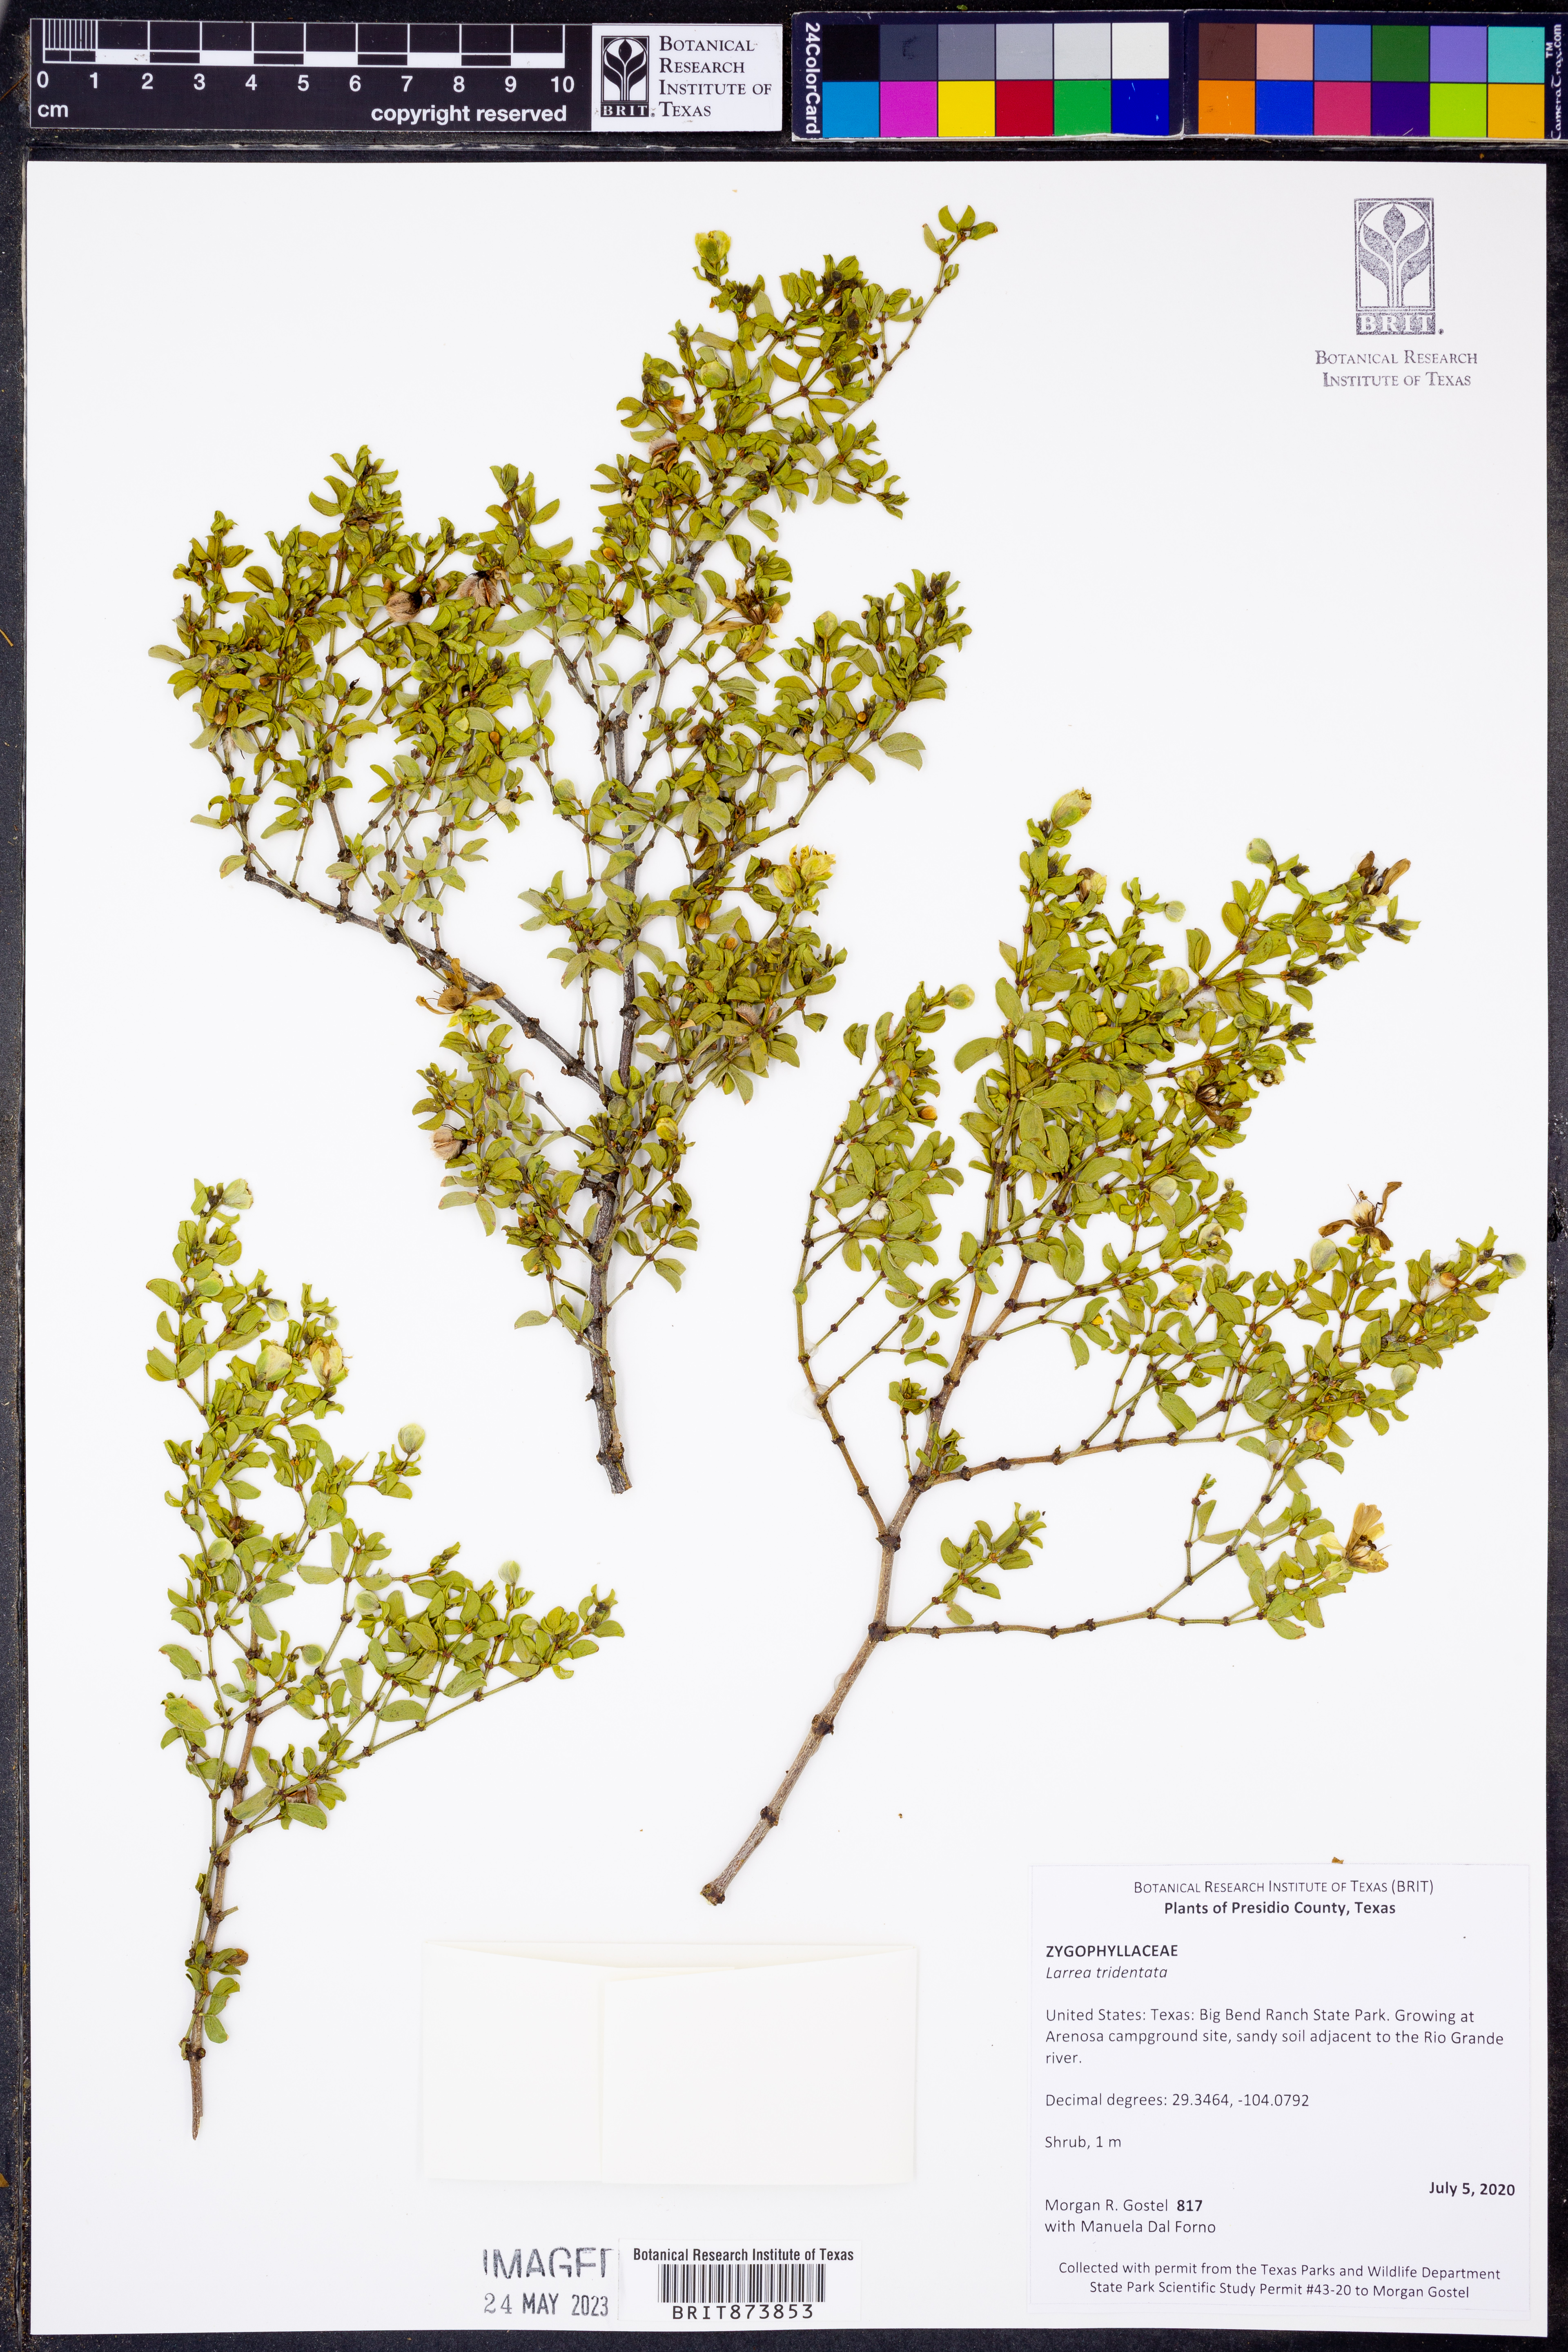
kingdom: Plantae
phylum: Tracheophyta
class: Magnoliopsida
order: Zygophyllales
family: Zygophyllaceae
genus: Larrea
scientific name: Larrea tridentata
